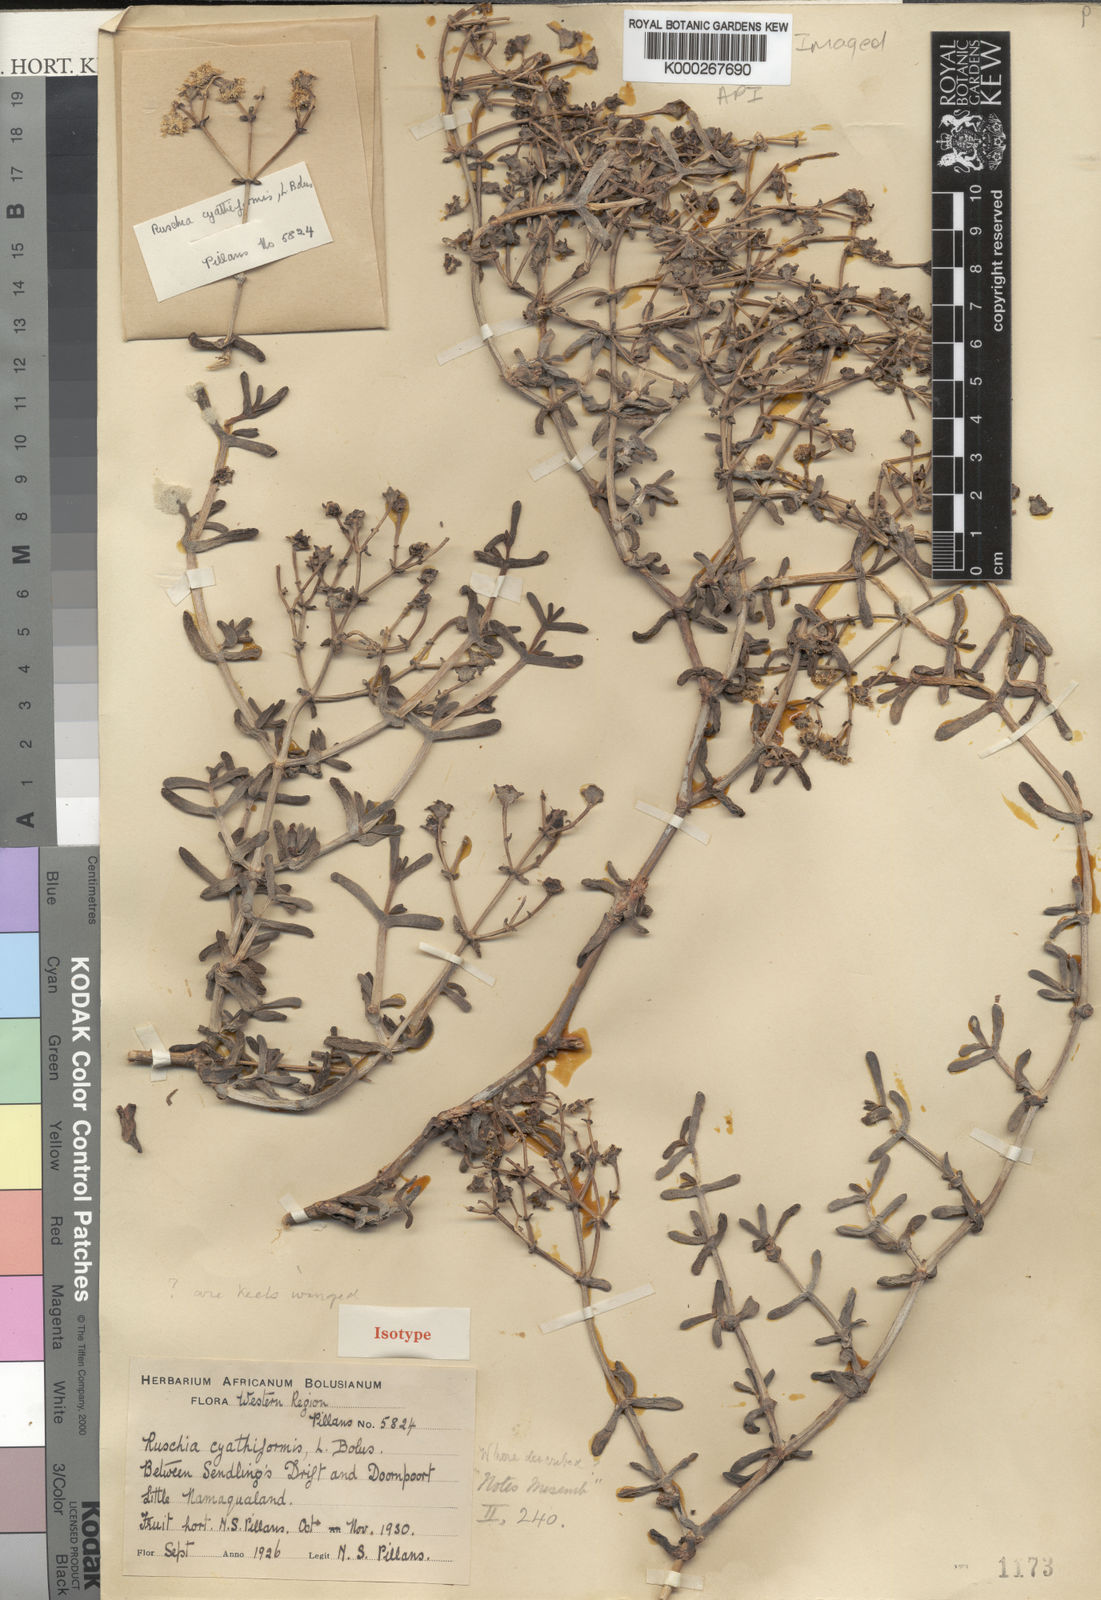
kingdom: Plantae
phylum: Tracheophyta
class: Magnoliopsida
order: Caryophyllales
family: Aizoaceae
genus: Eberlanzia
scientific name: Eberlanzia cyathiformis
